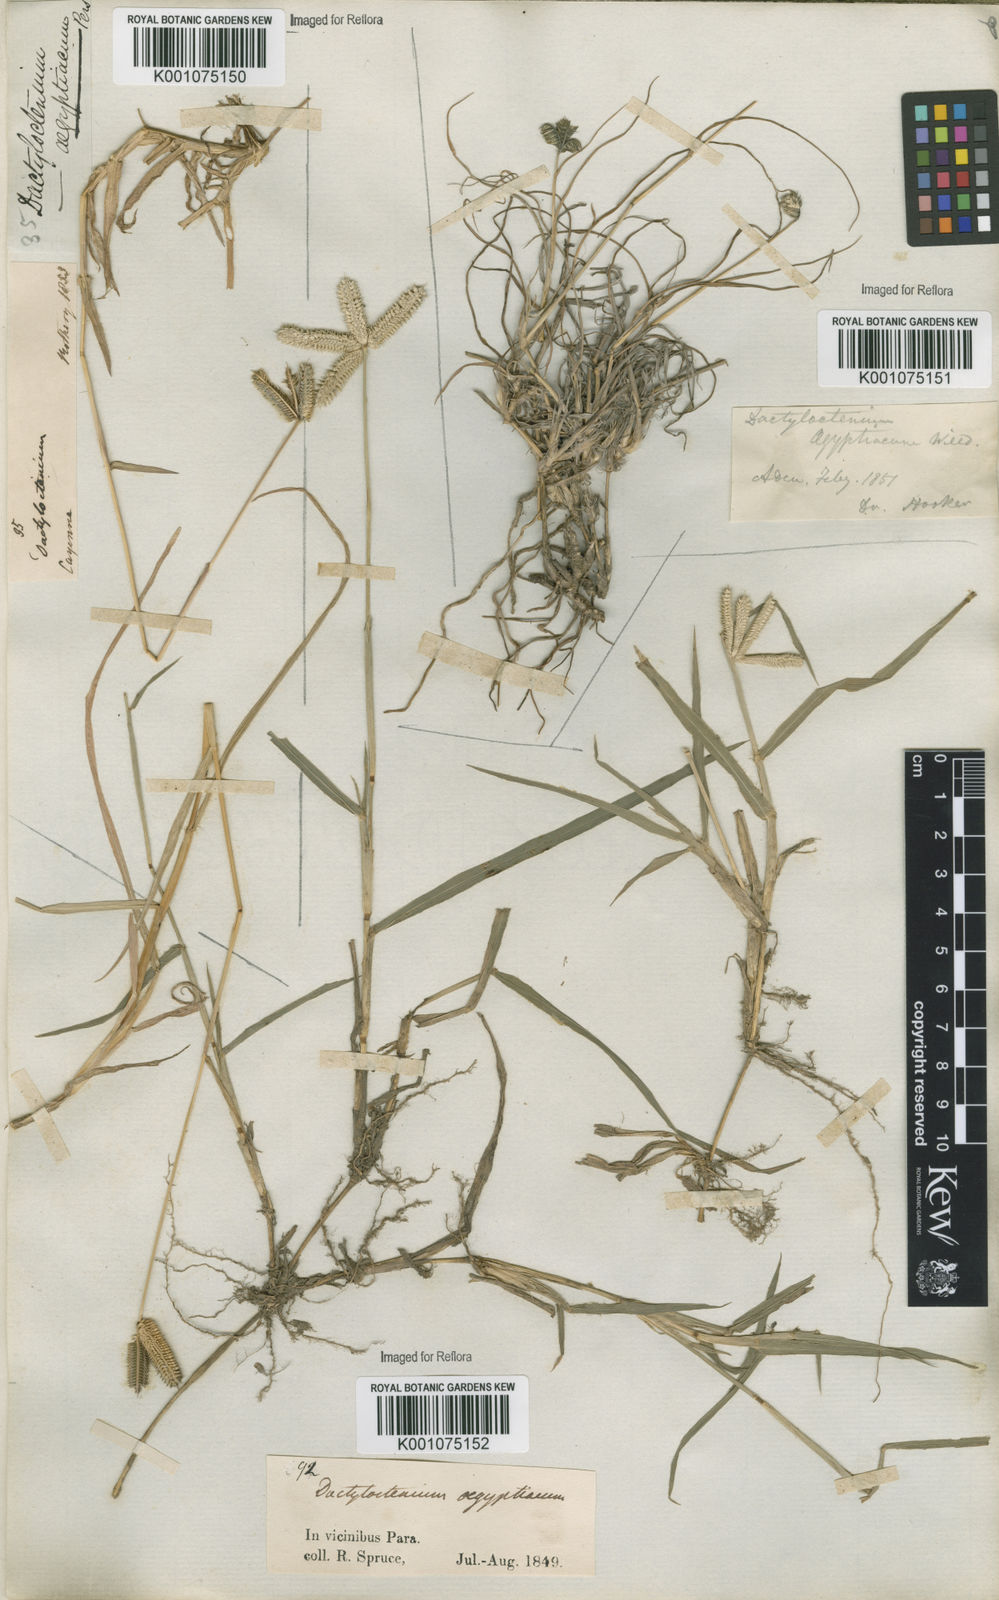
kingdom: Plantae
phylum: Tracheophyta
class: Liliopsida
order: Poales
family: Poaceae
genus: Dactyloctenium
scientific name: Dactyloctenium aegyptium
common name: Egyptian grass
